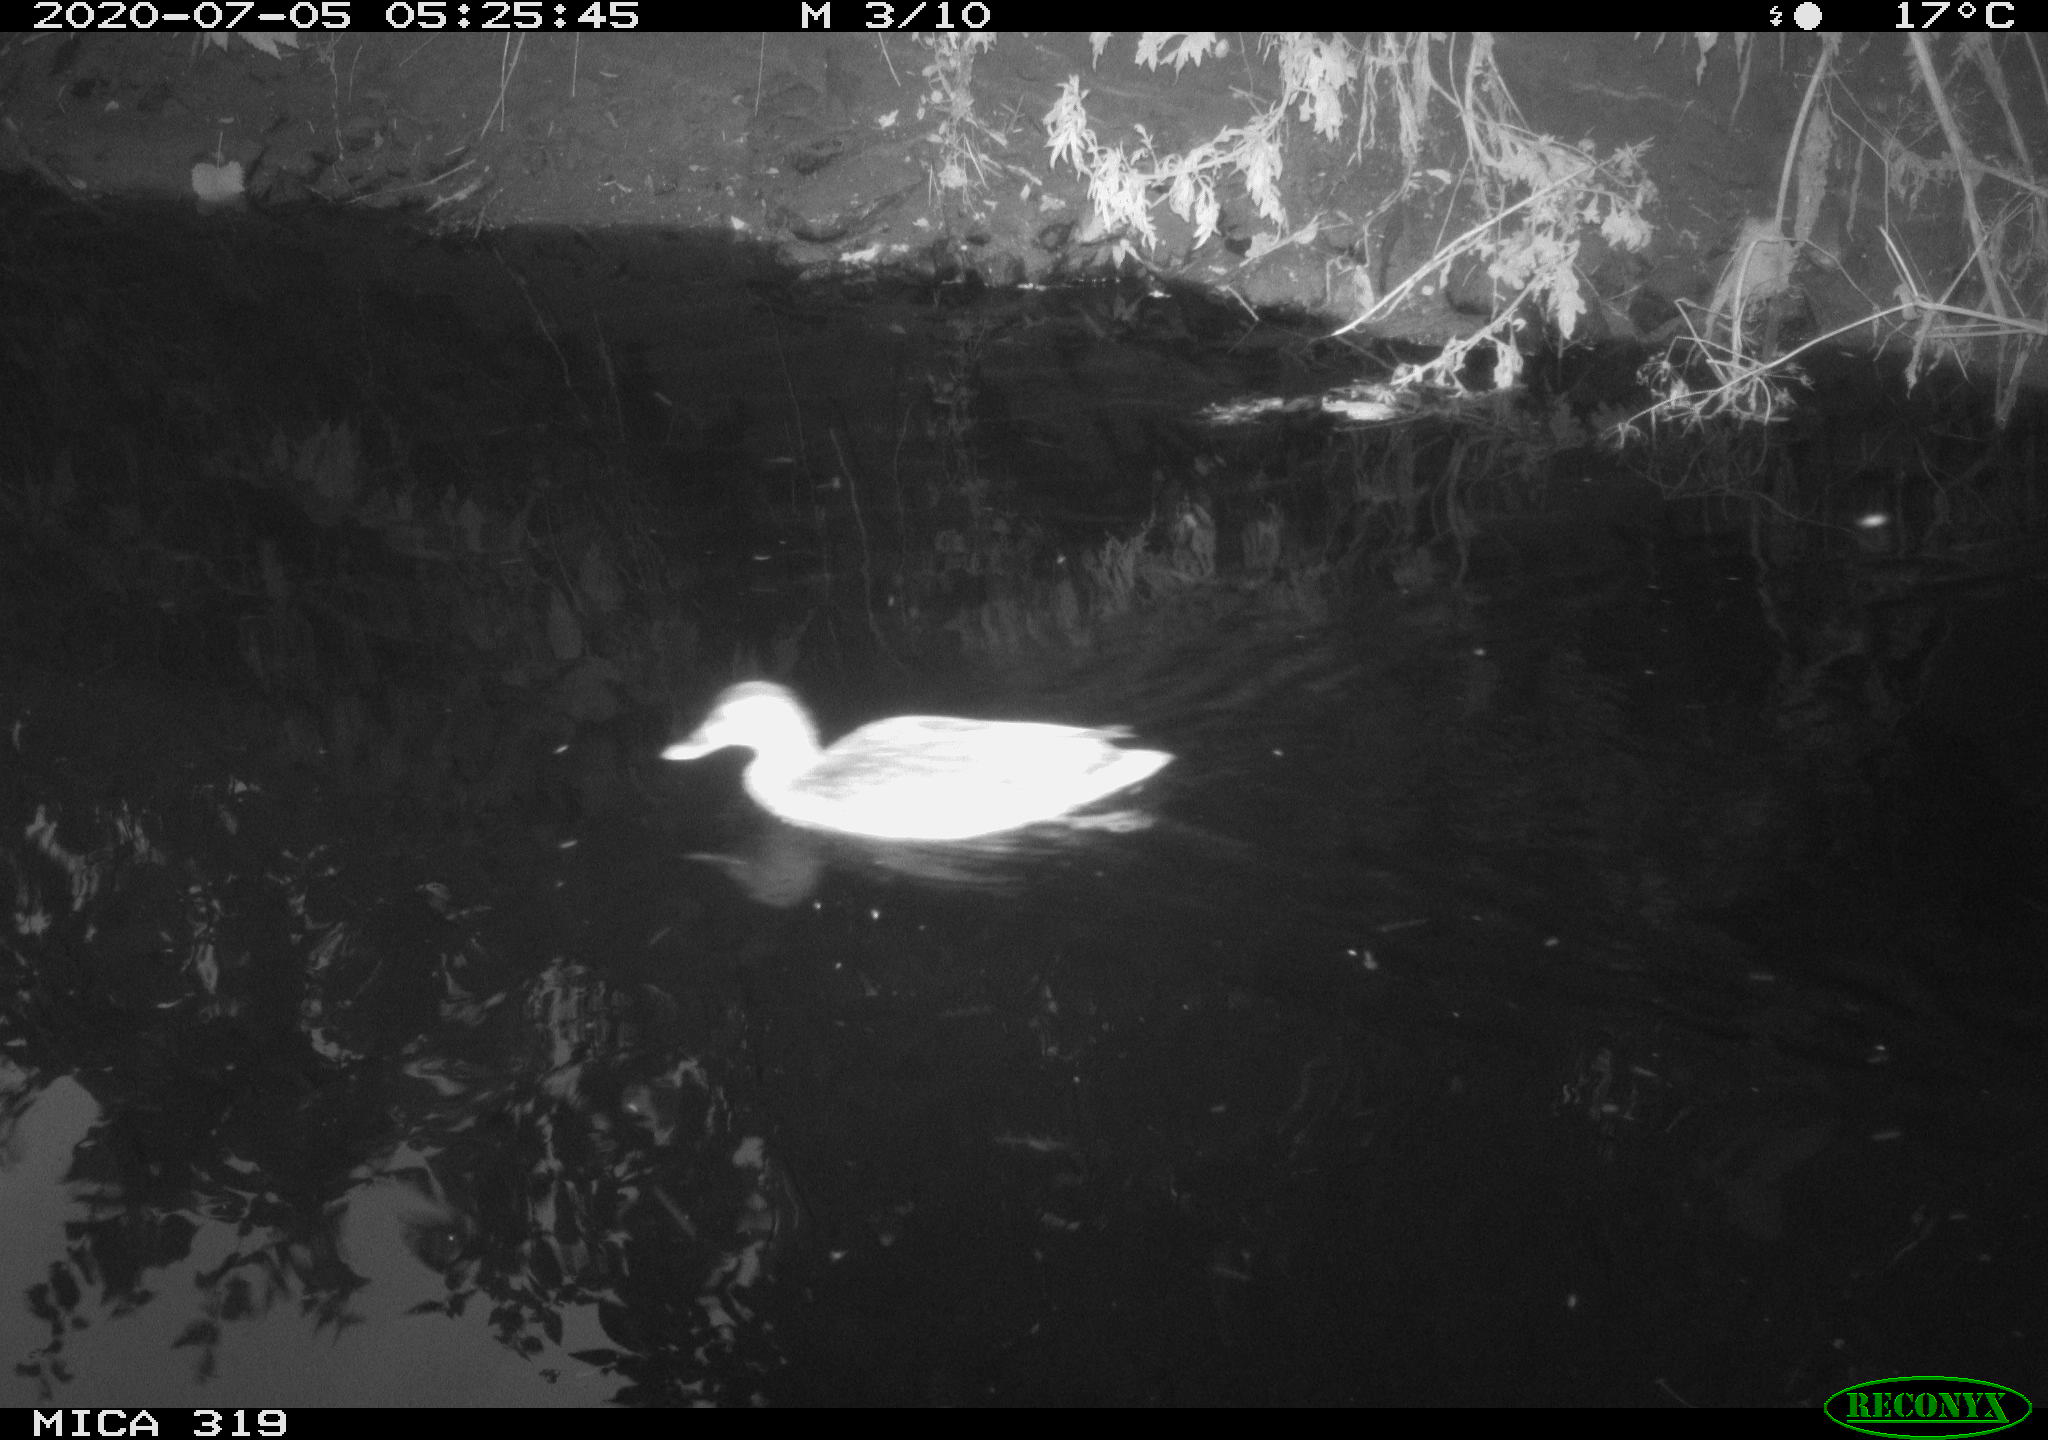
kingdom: Animalia
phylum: Chordata
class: Aves
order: Anseriformes
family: Anatidae
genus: Anas
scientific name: Anas platyrhynchos
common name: Mallard
